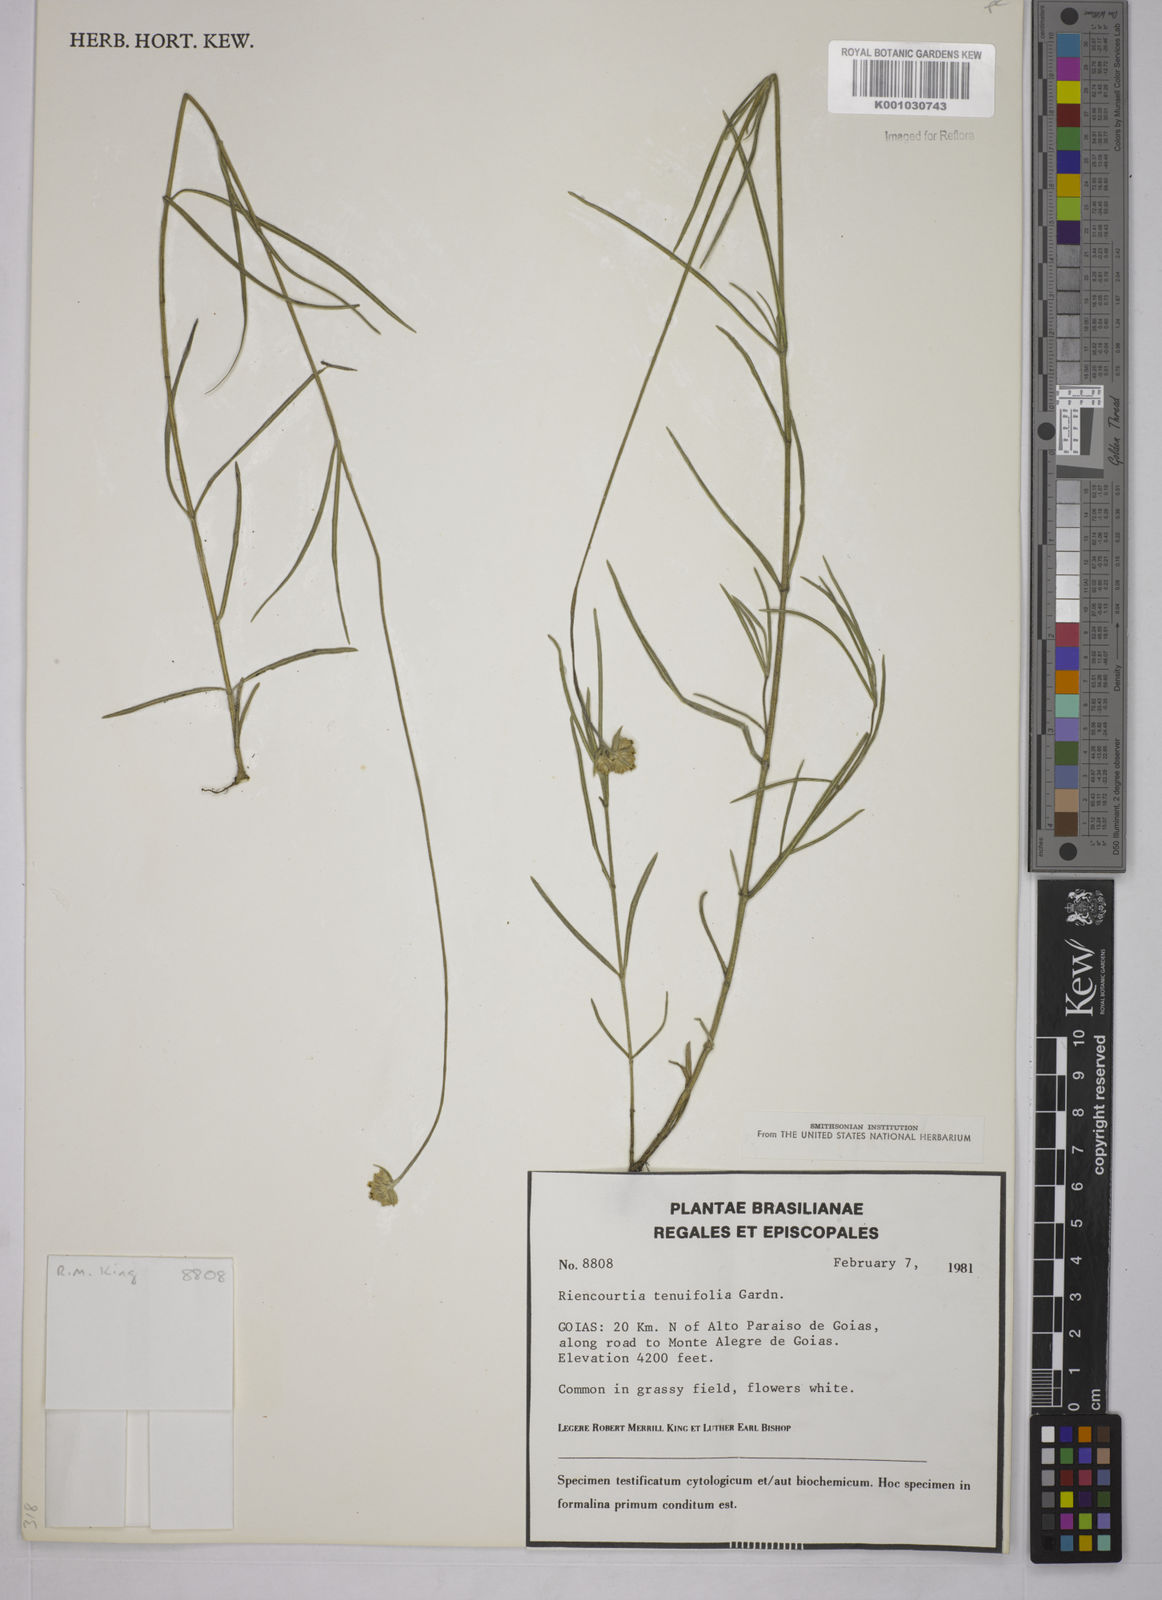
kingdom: Plantae
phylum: Tracheophyta
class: Magnoliopsida
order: Asterales
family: Asteraceae
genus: Riencourtia
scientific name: Riencourtia tenuifolia
